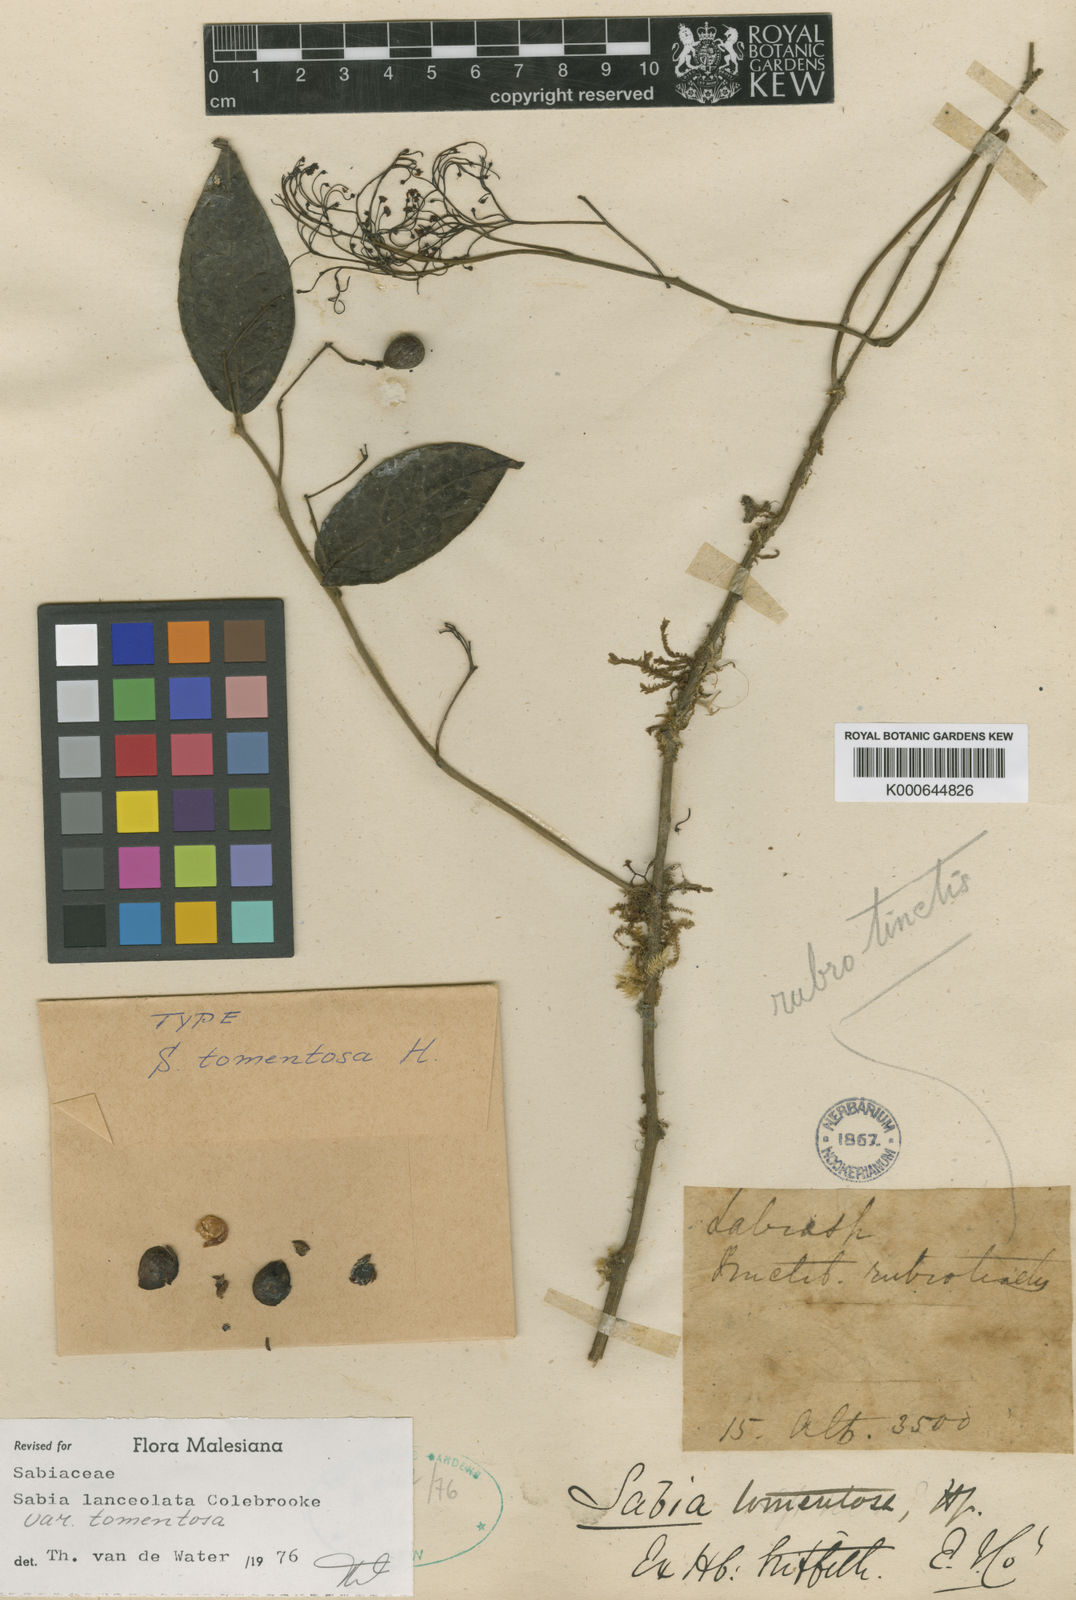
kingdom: Plantae
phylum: Tracheophyta
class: Magnoliopsida
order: Proteales
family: Sabiaceae
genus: Sabia
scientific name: Sabia lanceolata
